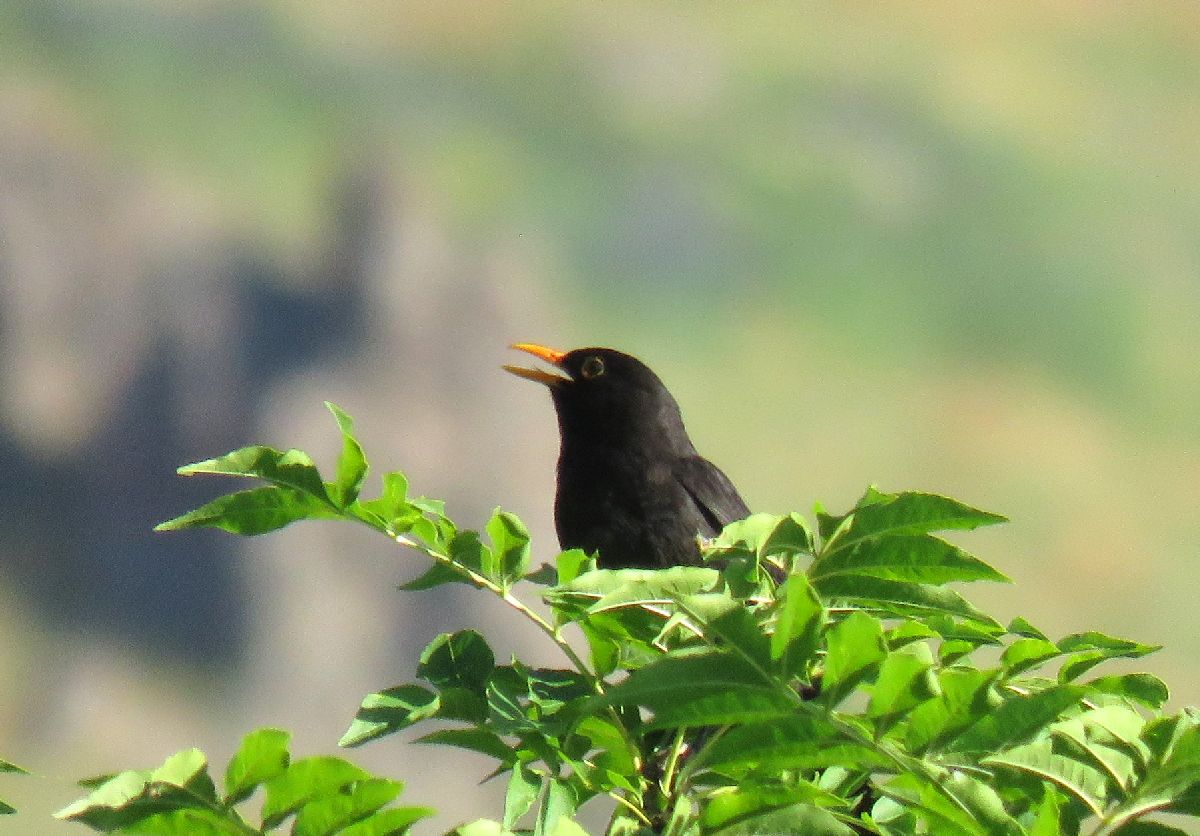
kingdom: Animalia
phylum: Chordata
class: Aves
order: Passeriformes
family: Turdidae
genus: Turdus
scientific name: Turdus merula
